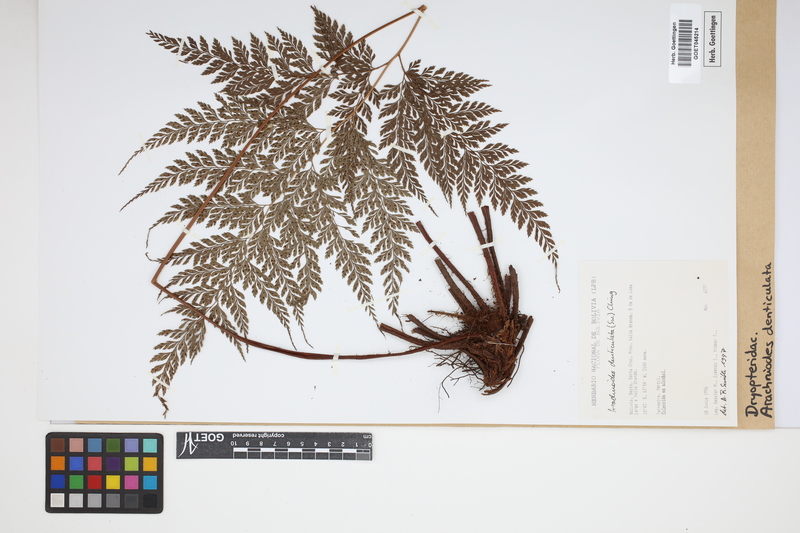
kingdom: Plantae
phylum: Tracheophyta
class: Polypodiopsida
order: Polypodiales
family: Dryopteridaceae
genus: Arachniodes
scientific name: Arachniodes denticulata
